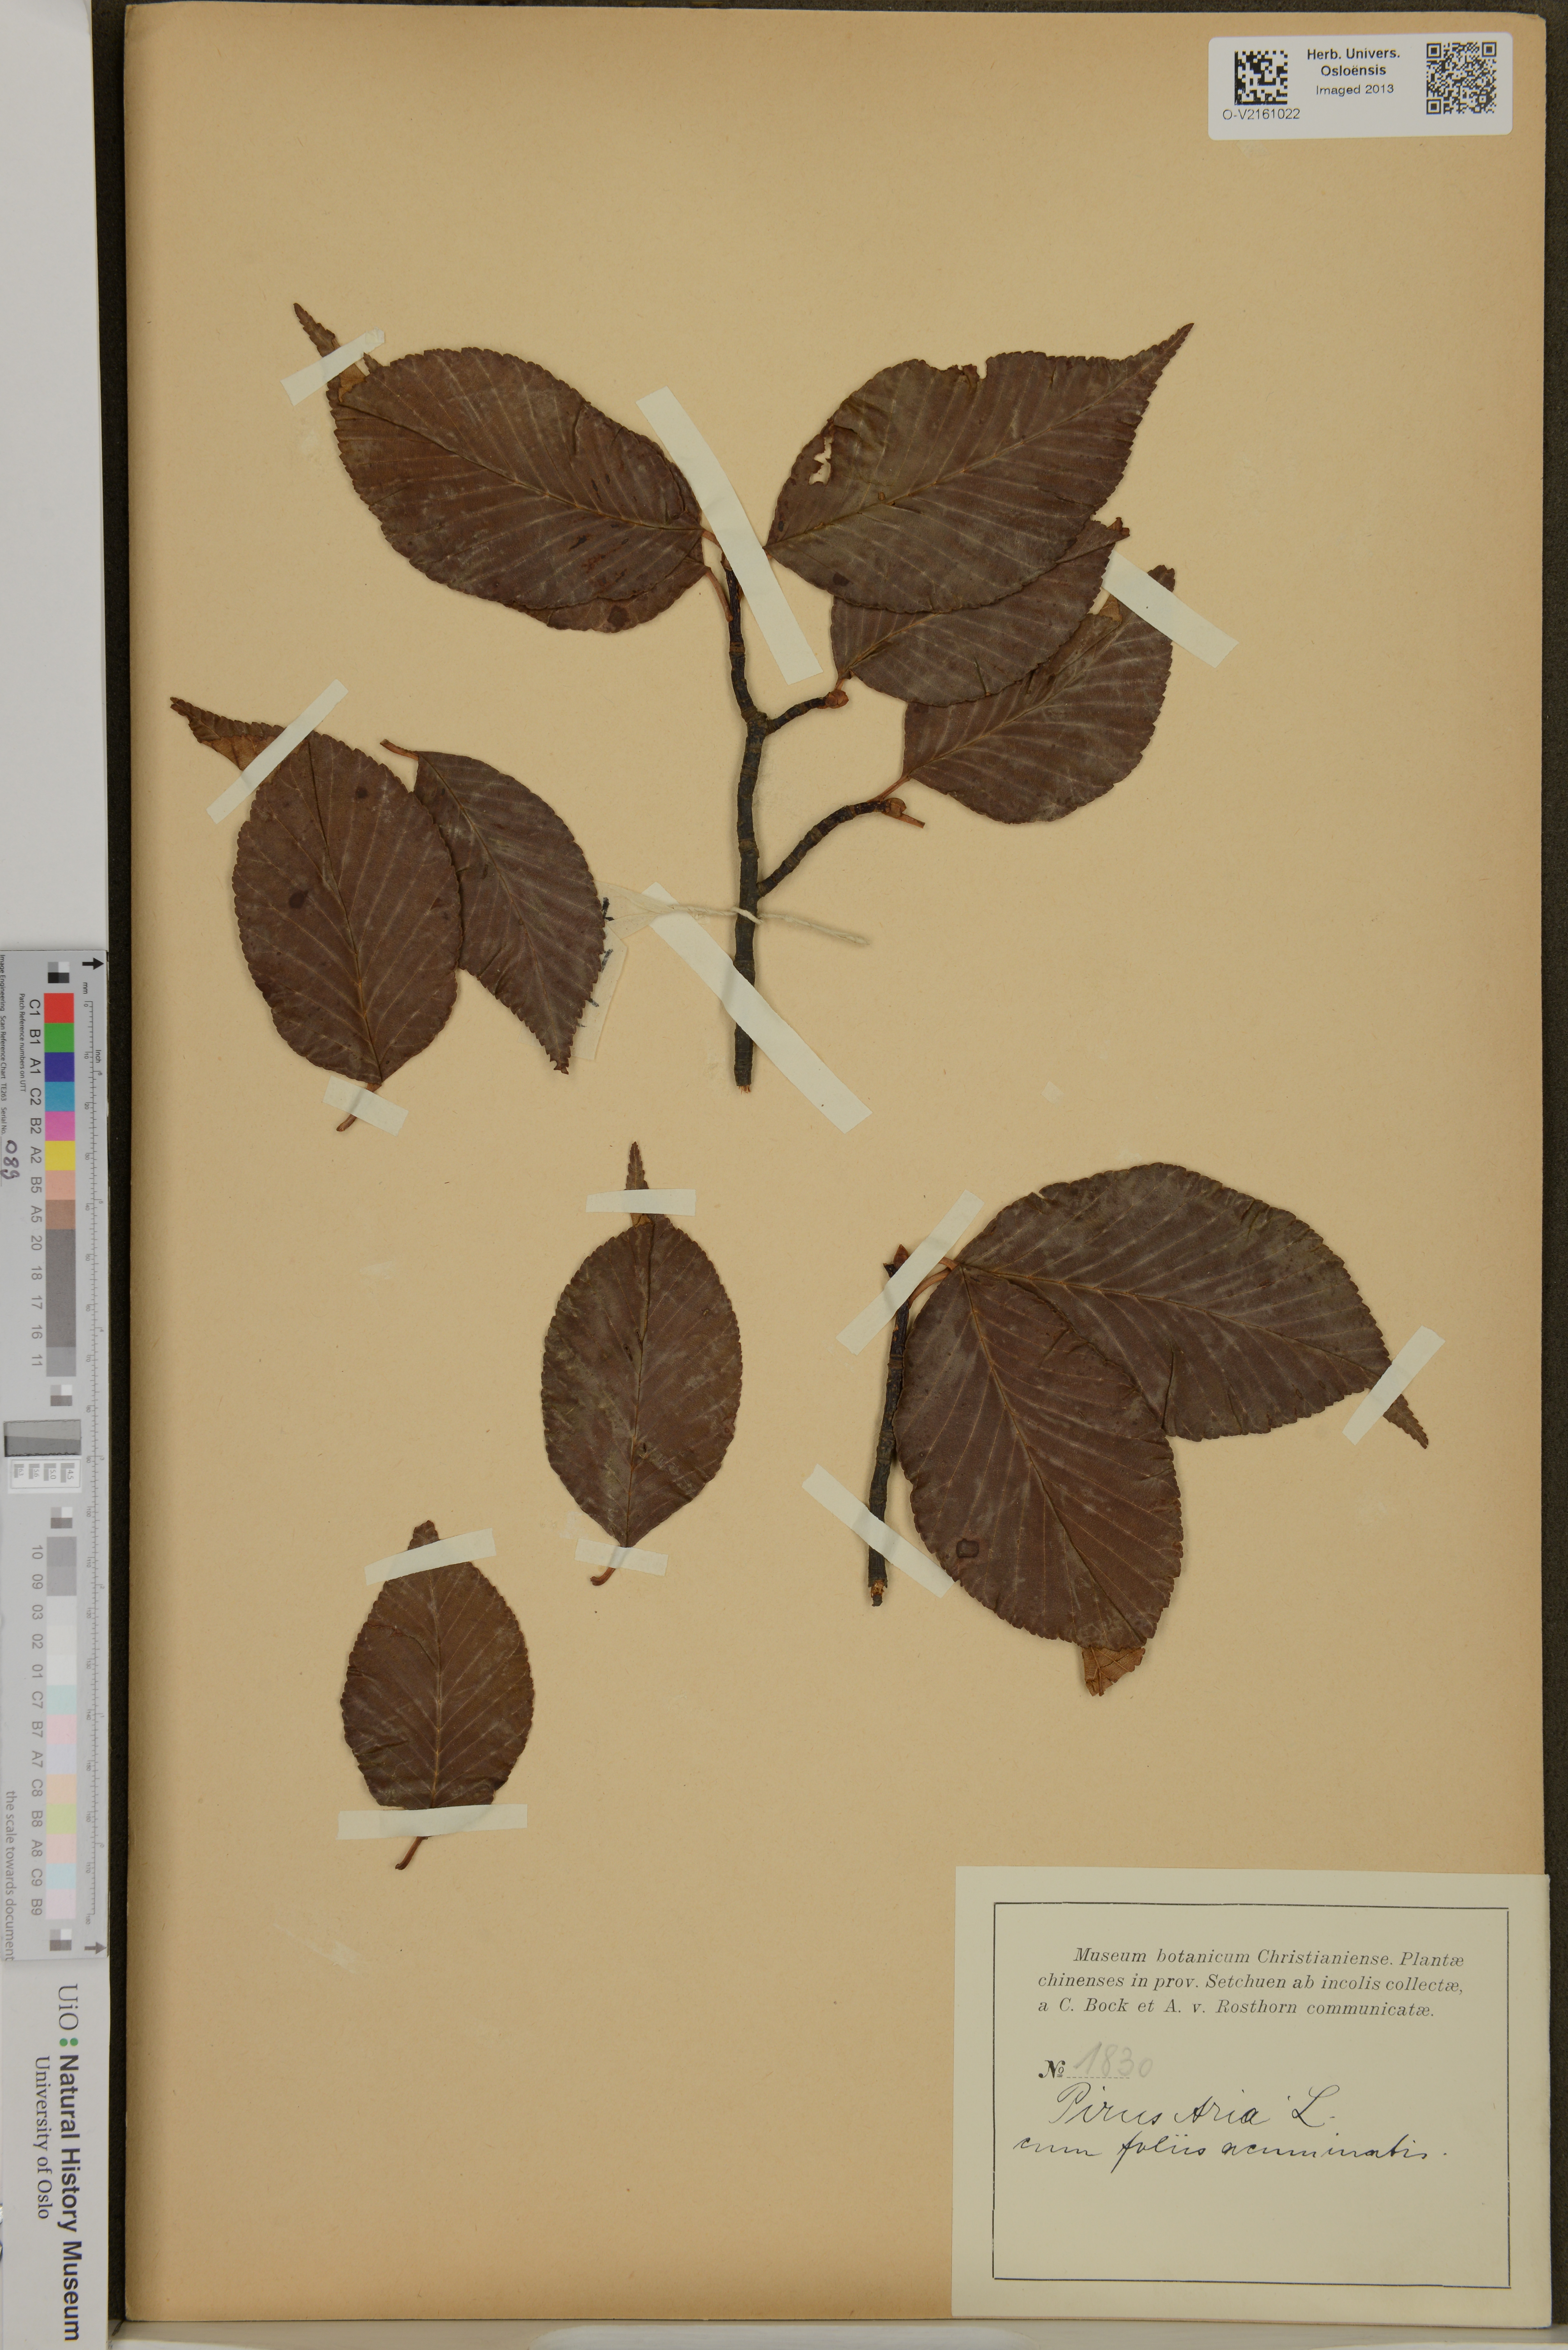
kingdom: Plantae
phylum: Tracheophyta
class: Magnoliopsida
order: Rosales
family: Rosaceae
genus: Sorbus
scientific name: Sorbus aria
